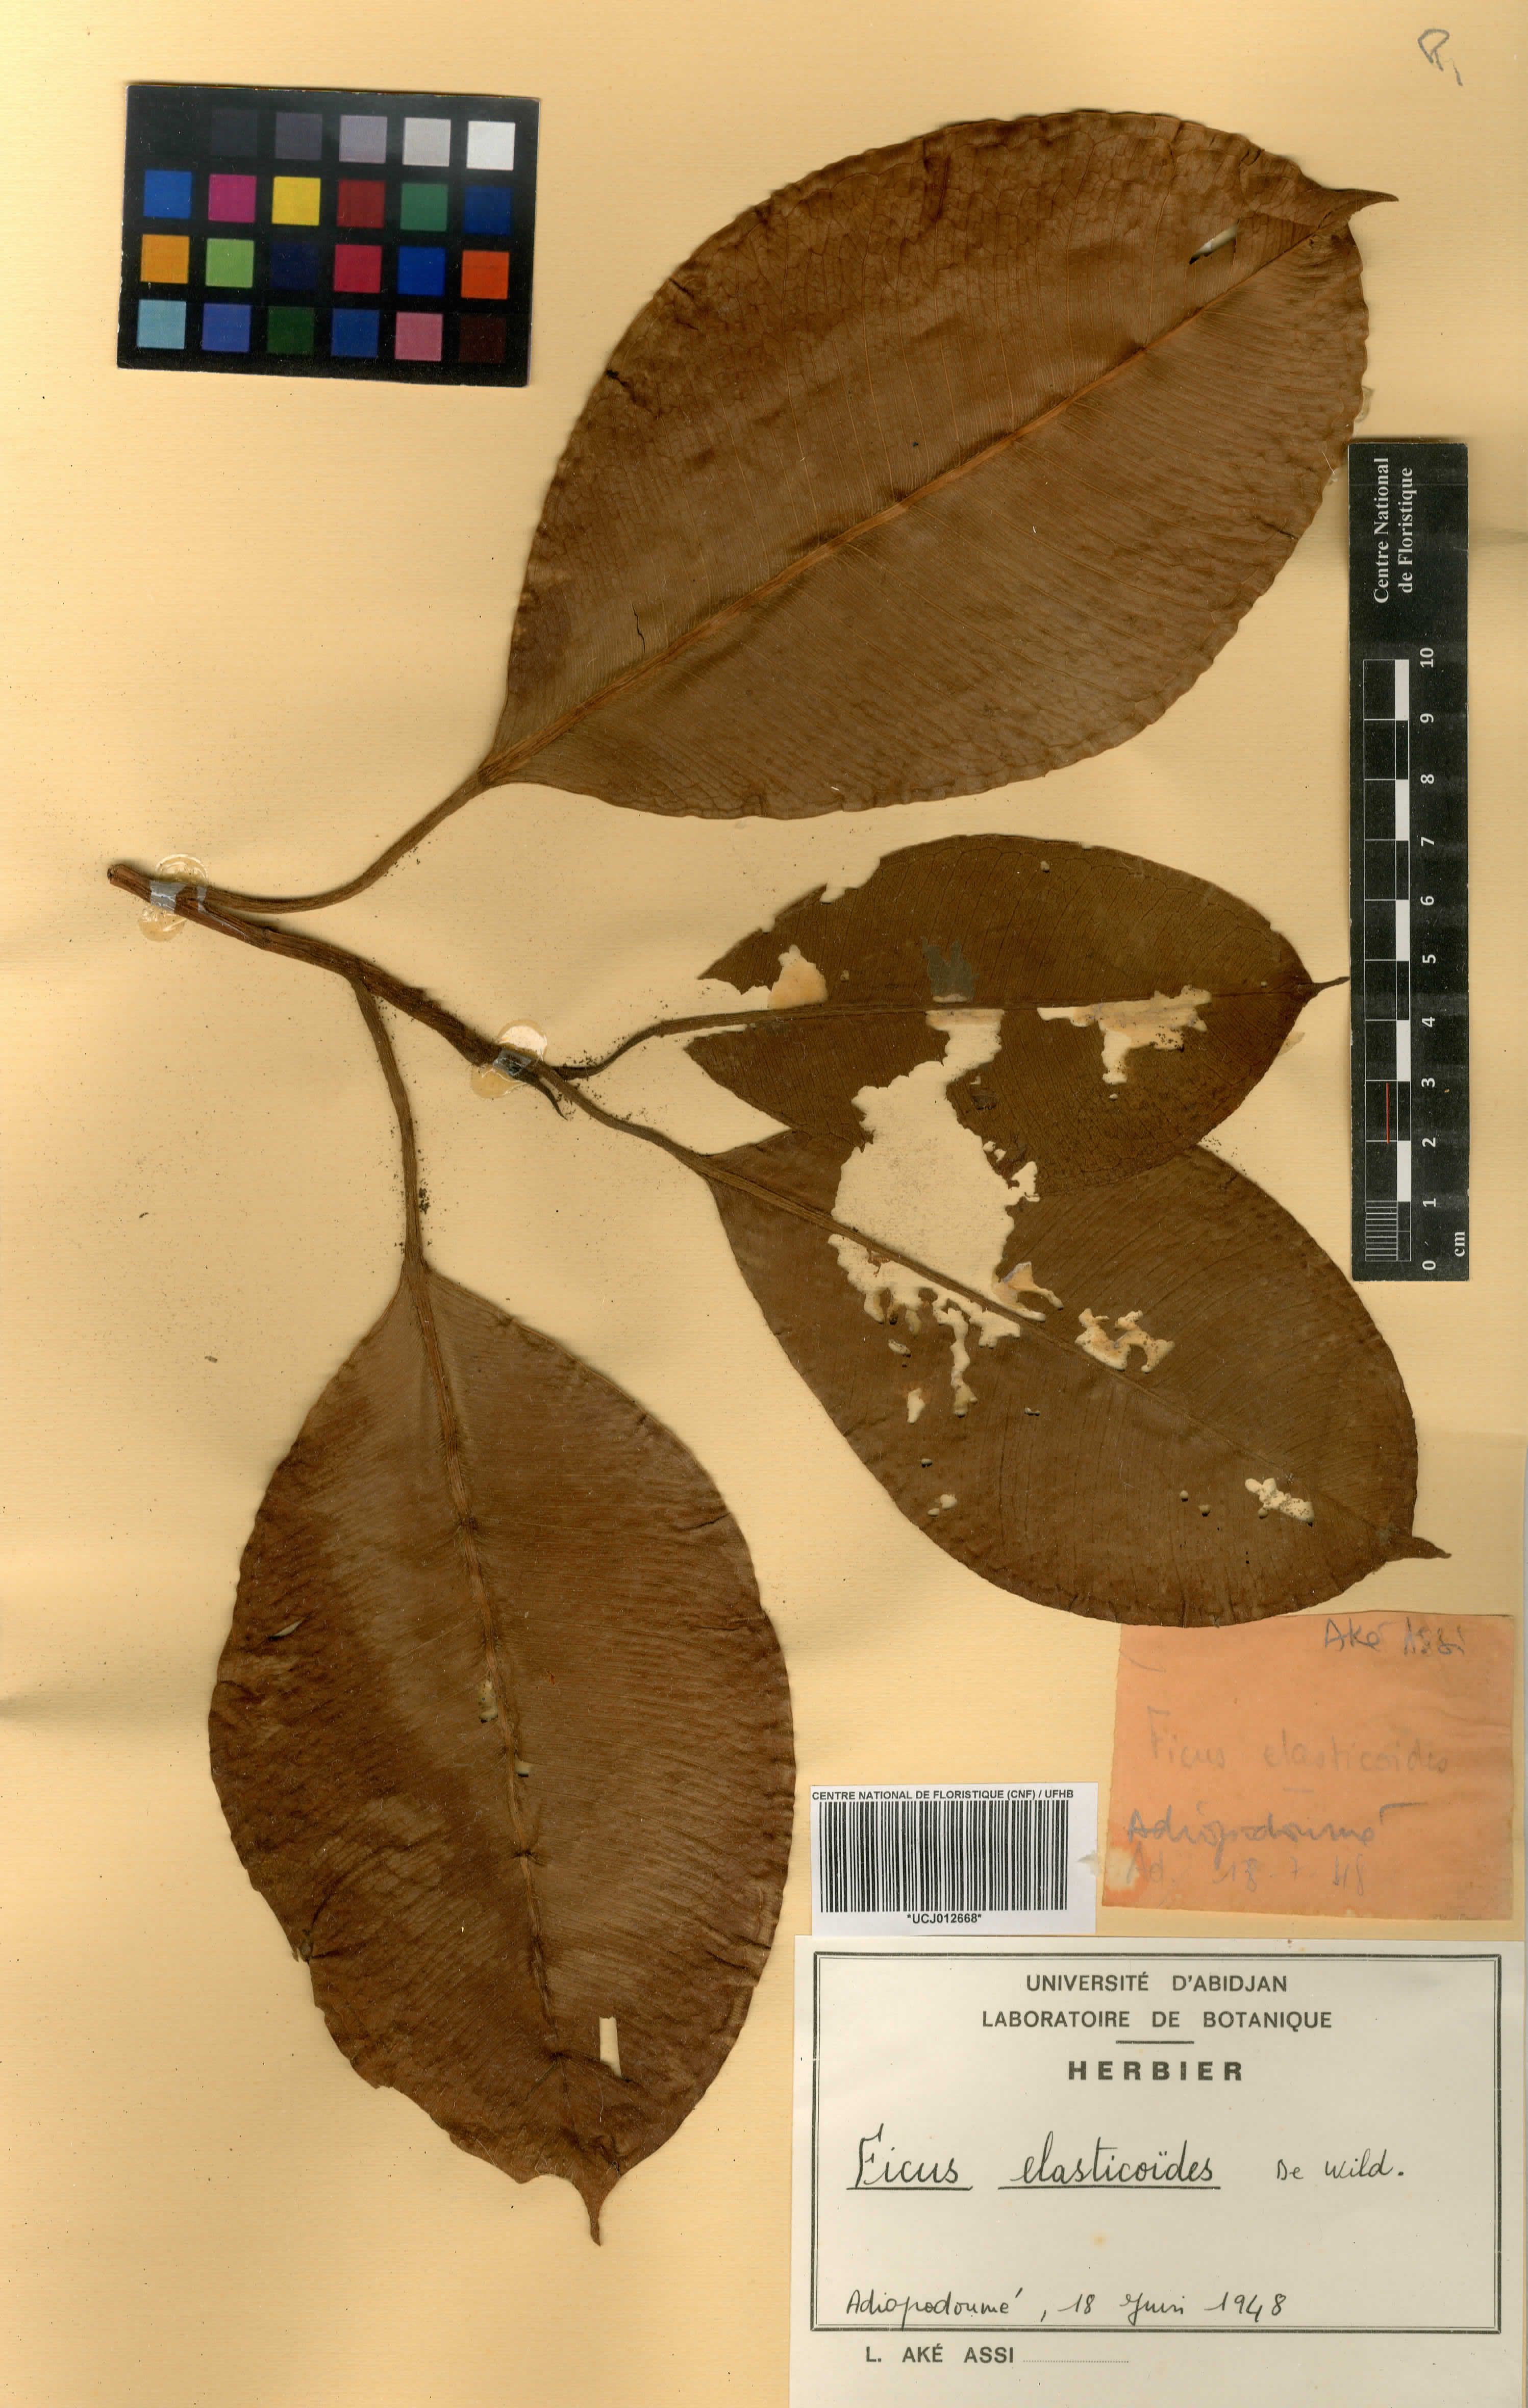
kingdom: Plantae
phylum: Tracheophyta
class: Magnoliopsida
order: Rosales
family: Moraceae
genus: Ficus
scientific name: Ficus elasticoides
